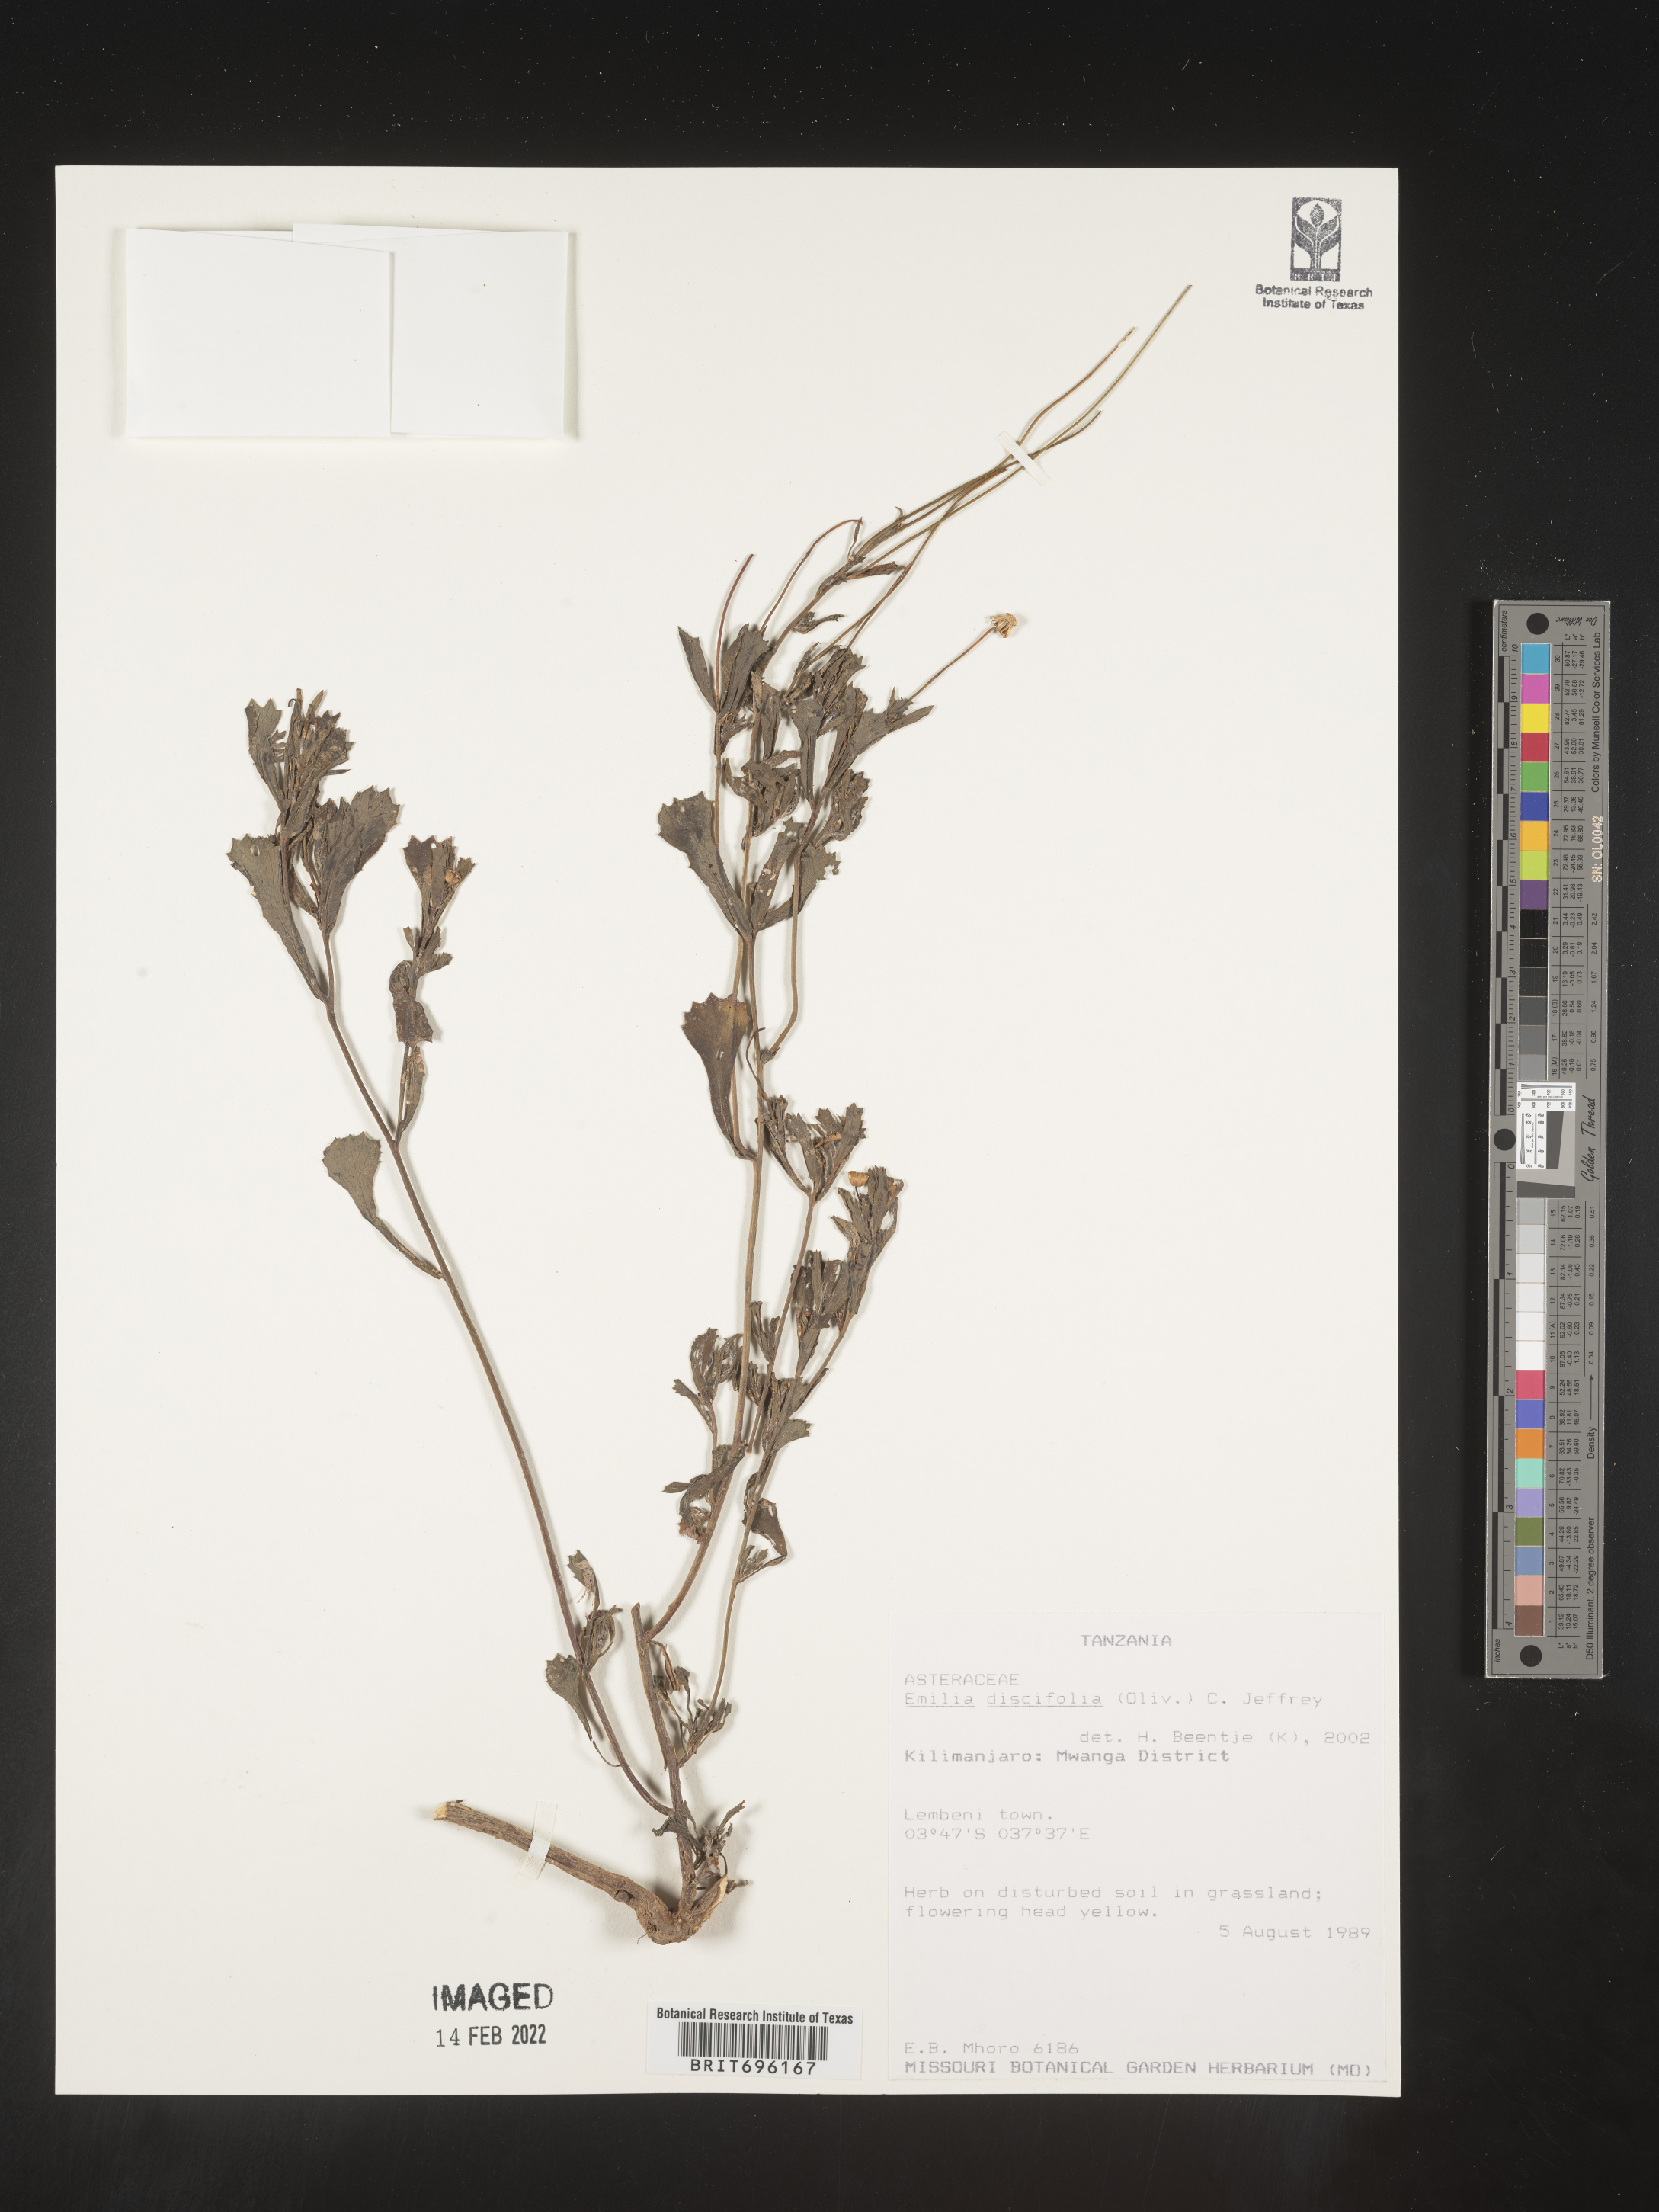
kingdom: Plantae
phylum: Tracheophyta
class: Magnoliopsida
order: Asterales
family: Asteraceae
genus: Emilia
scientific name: Emilia
